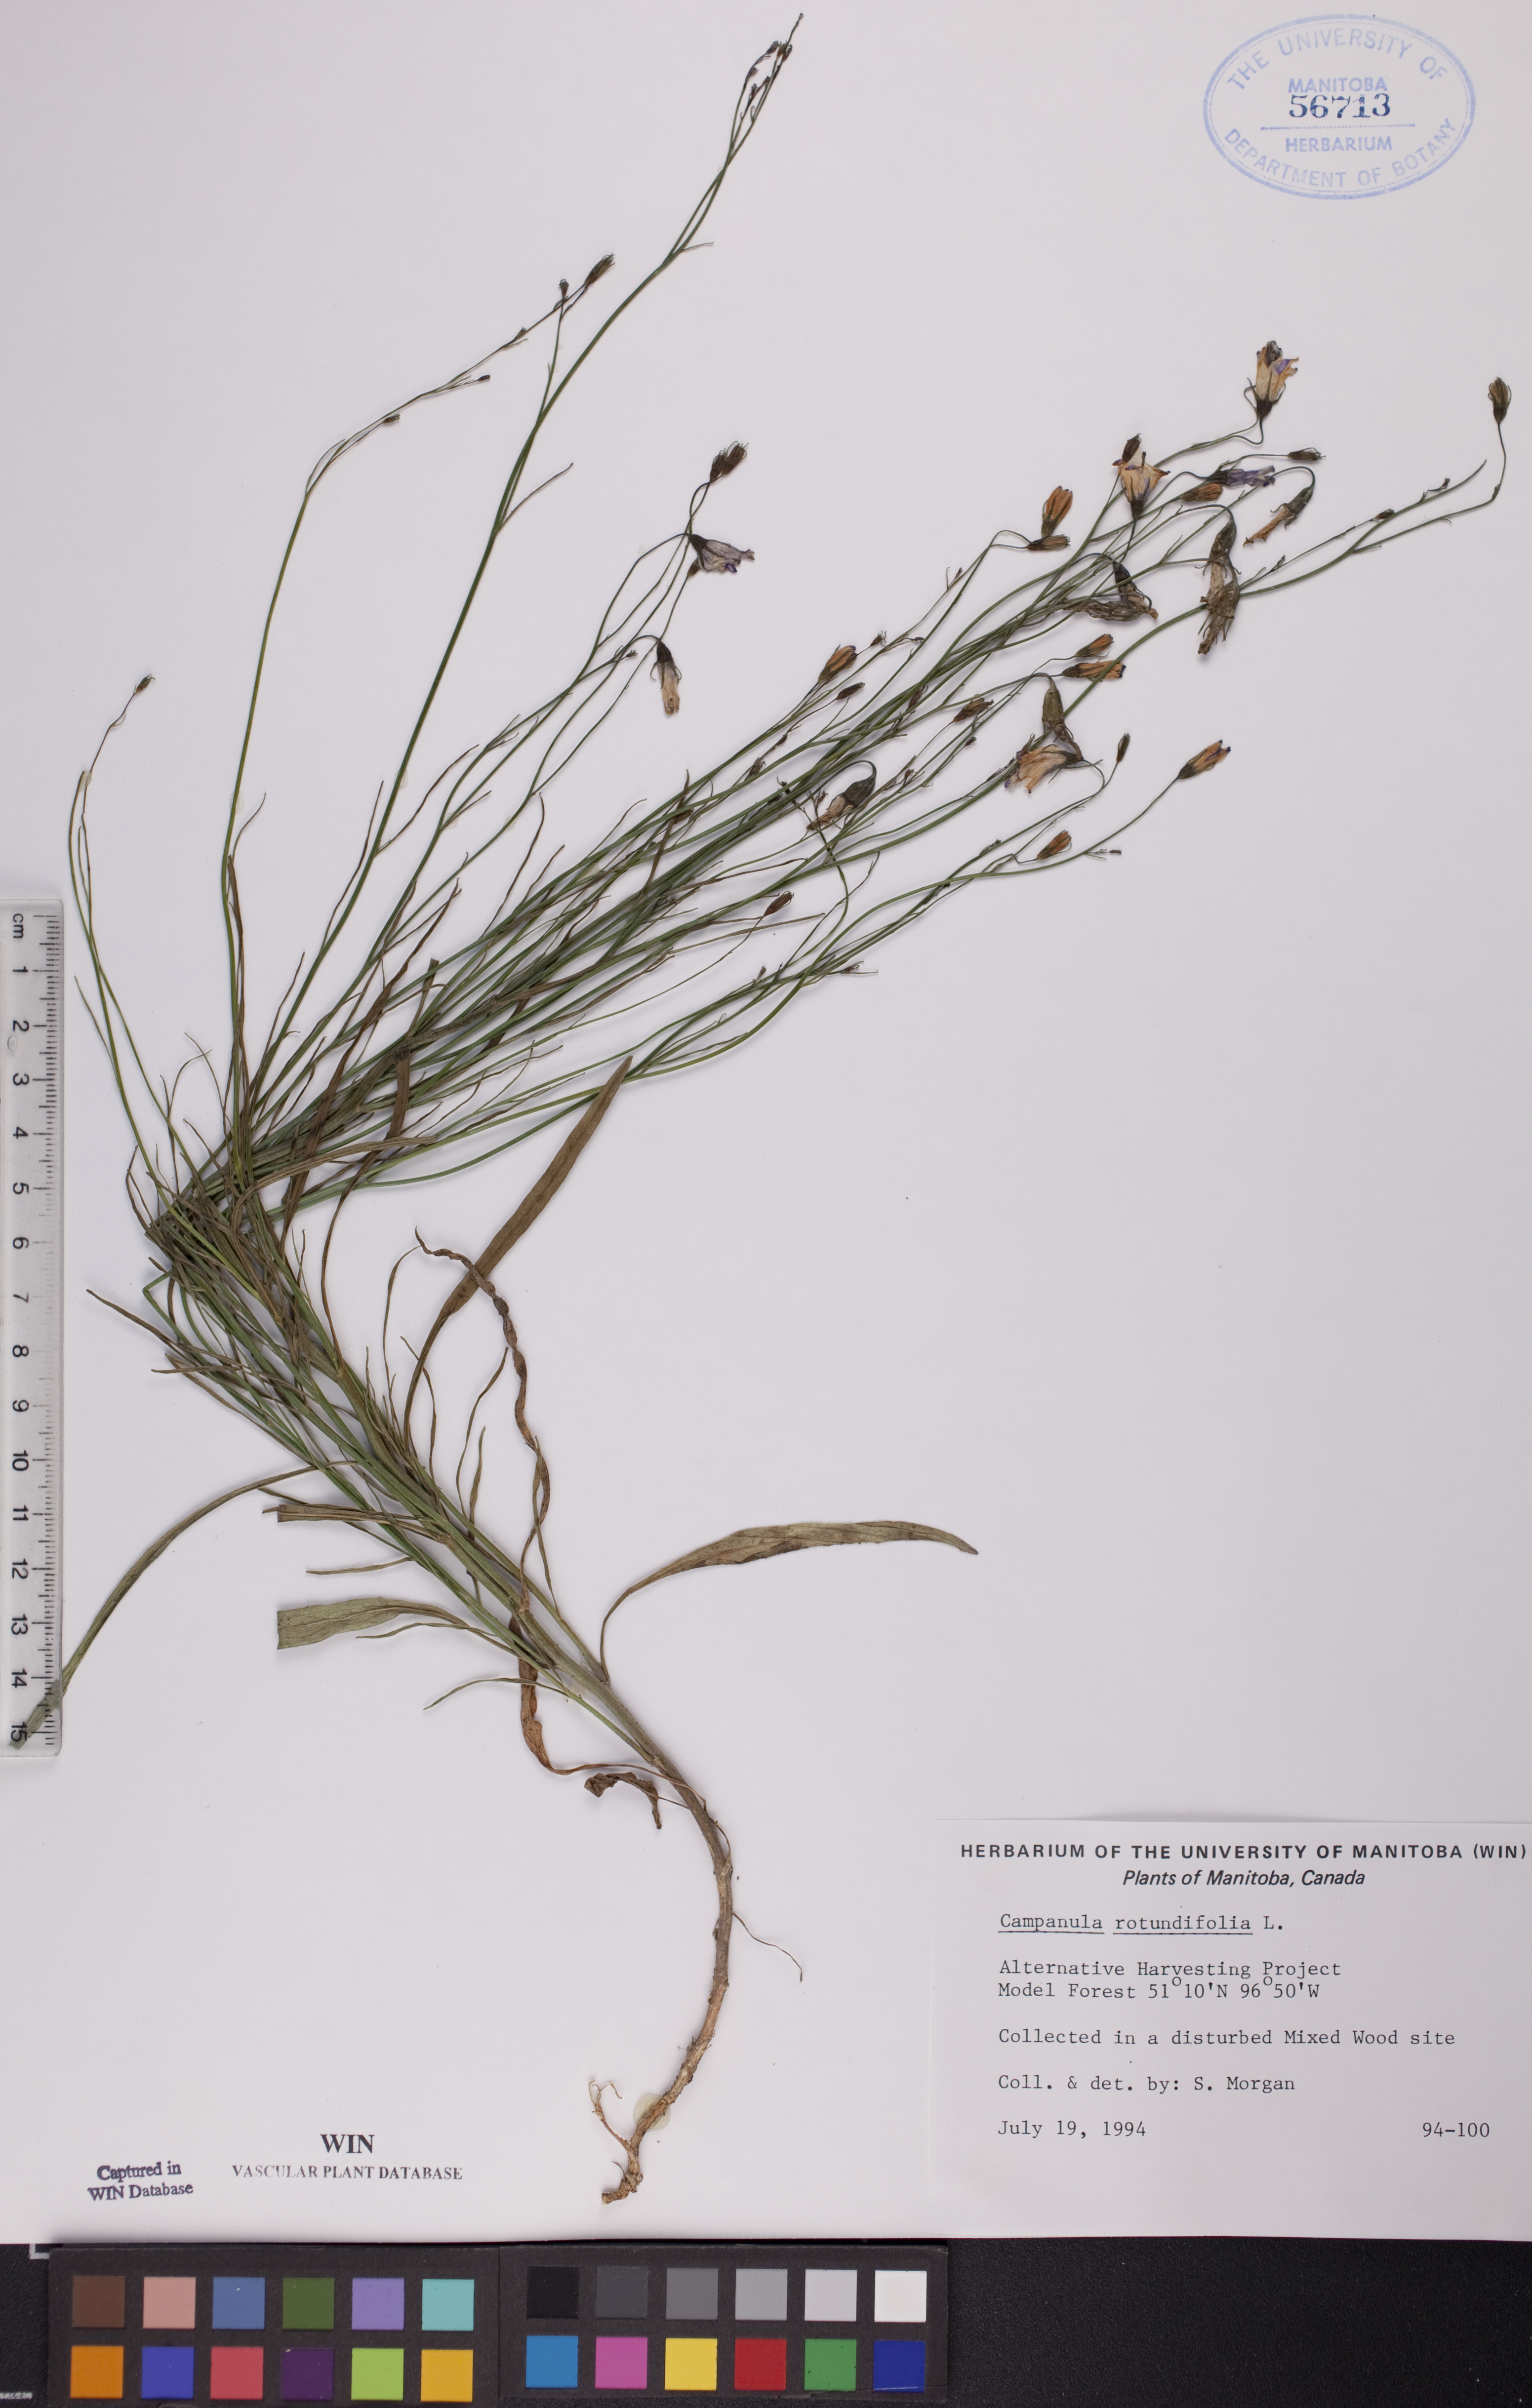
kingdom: Plantae
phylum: Tracheophyta
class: Magnoliopsida
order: Asterales
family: Campanulaceae
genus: Campanula
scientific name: Campanula rotundifolia
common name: Harebell
